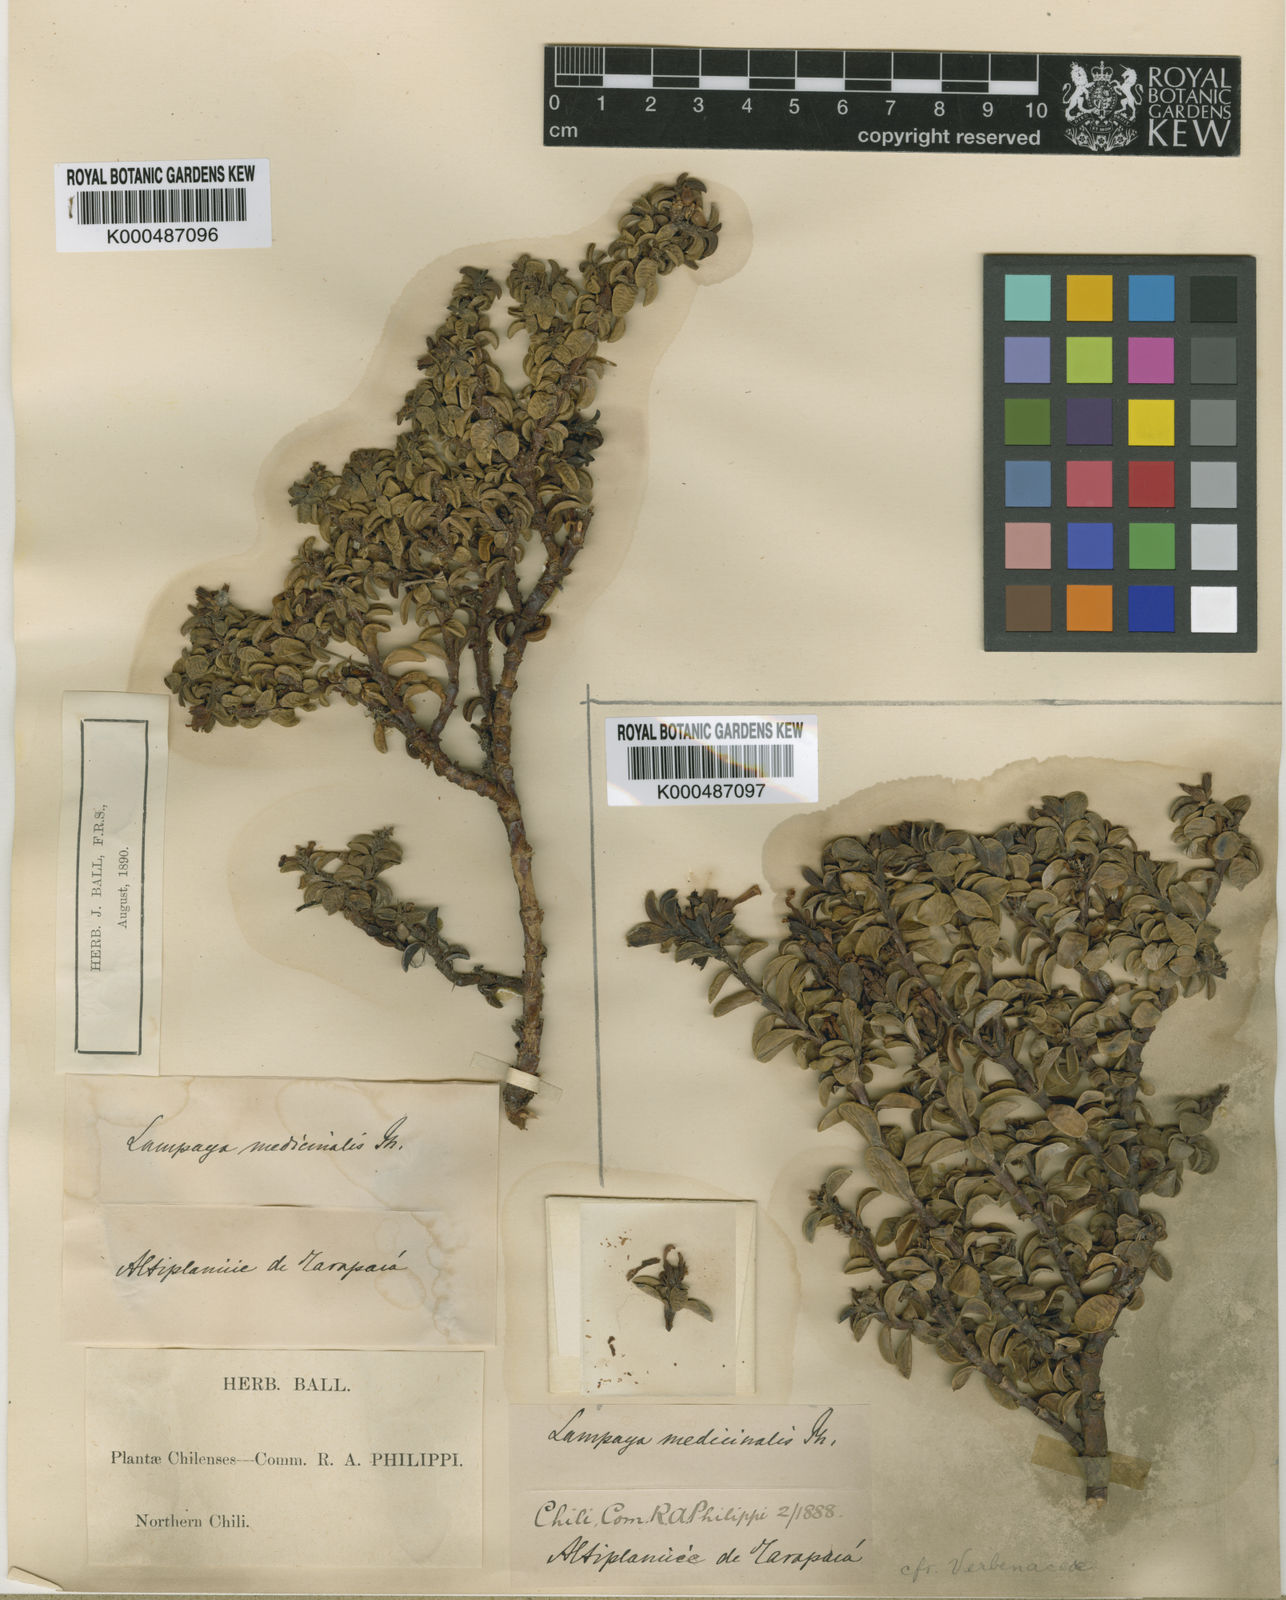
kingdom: Plantae
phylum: Tracheophyta
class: Magnoliopsida
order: Lamiales
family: Verbenaceae
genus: Lampayo
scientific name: Lampayo officinalis
